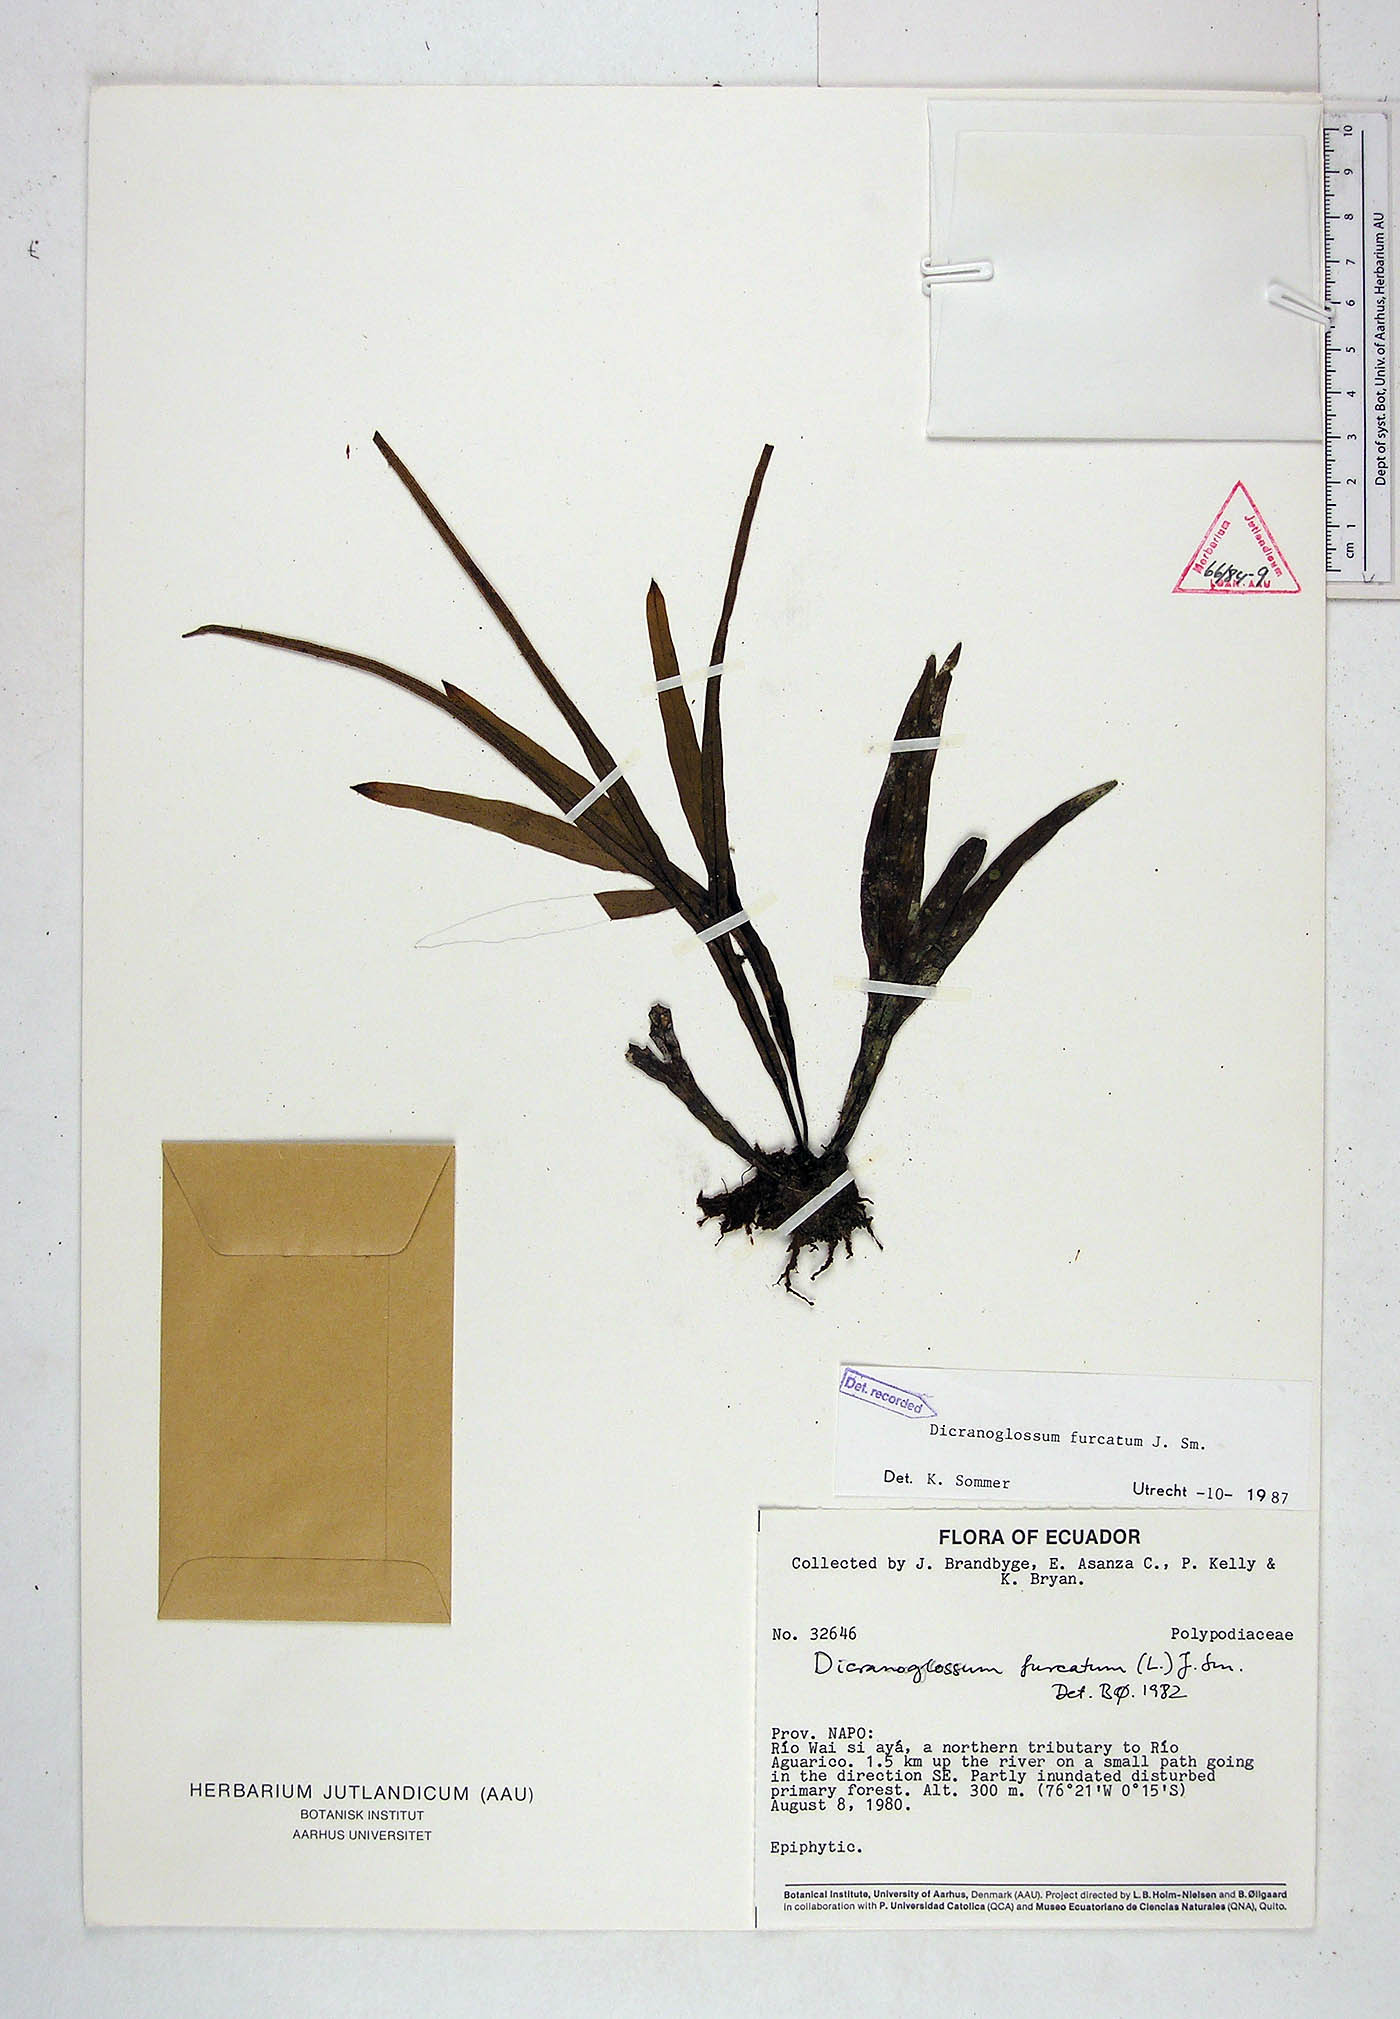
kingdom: Plantae
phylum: Tracheophyta
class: Polypodiopsida
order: Polypodiales
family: Polypodiaceae
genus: Pleopeltis
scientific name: Pleopeltis furcata
